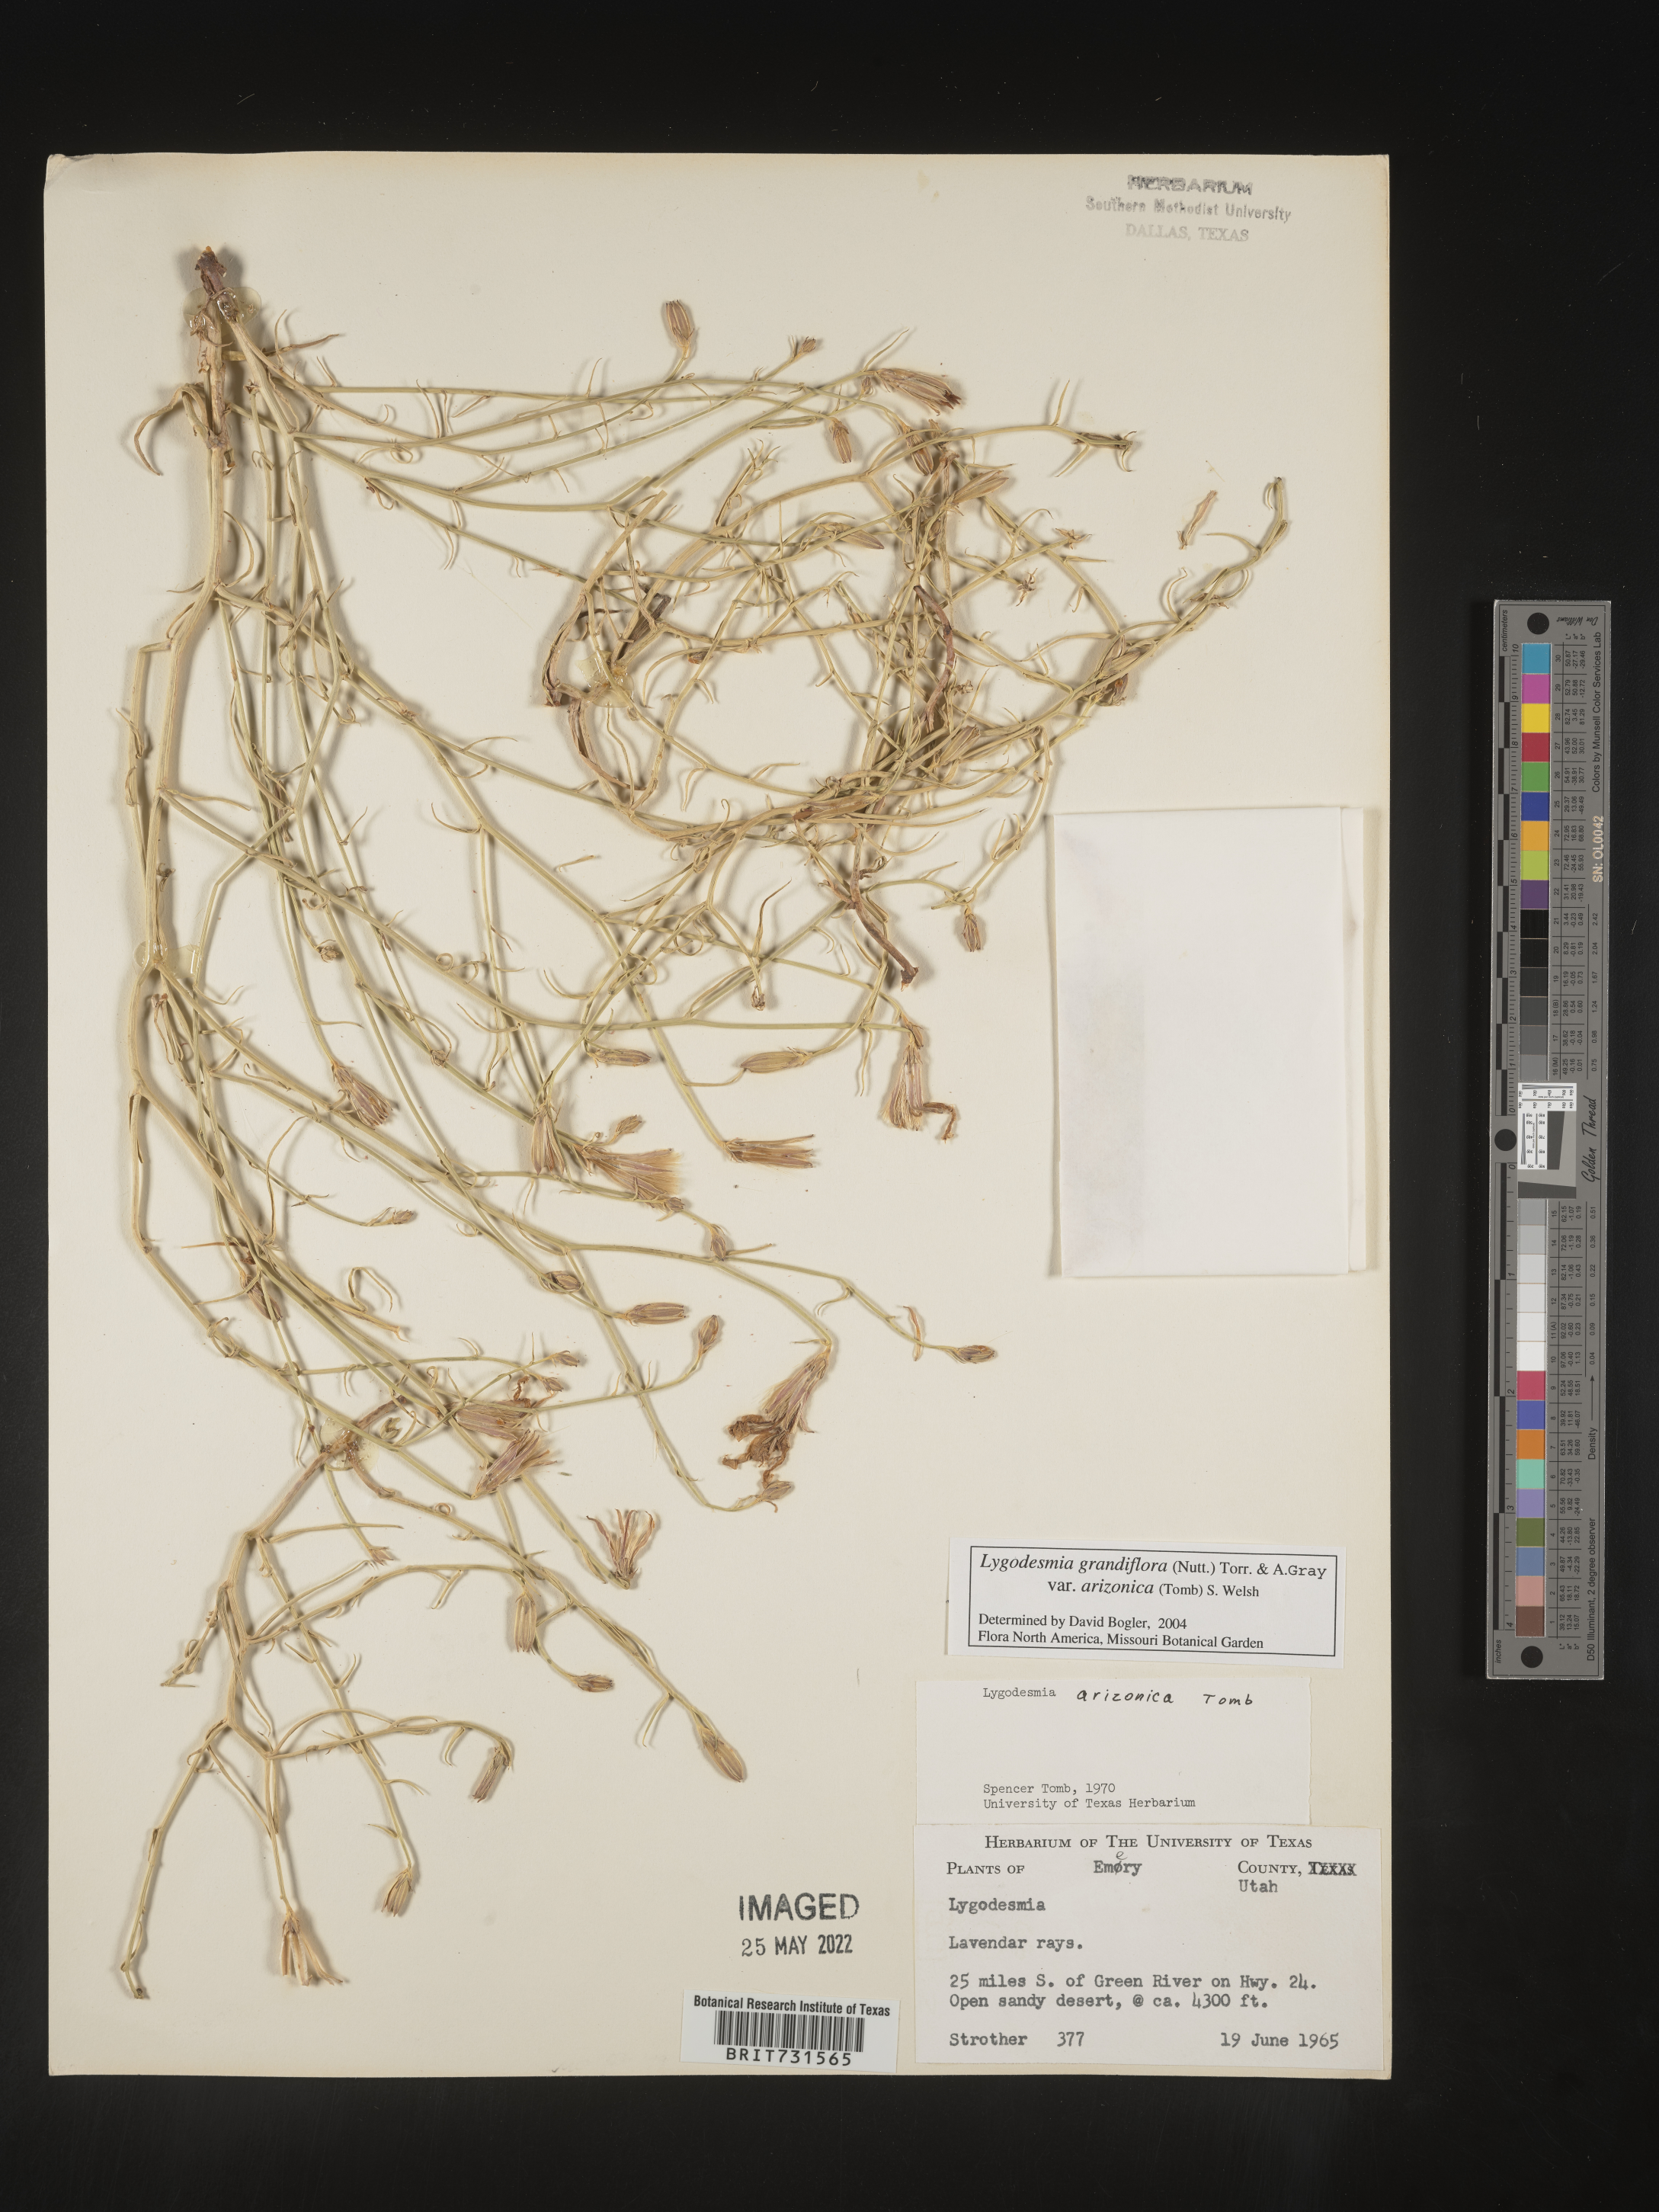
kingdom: Plantae
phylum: Tracheophyta
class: Magnoliopsida
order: Asterales
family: Asteraceae
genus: Lygodesmia
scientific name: Lygodesmia grandiflora
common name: Showy rush-pink
